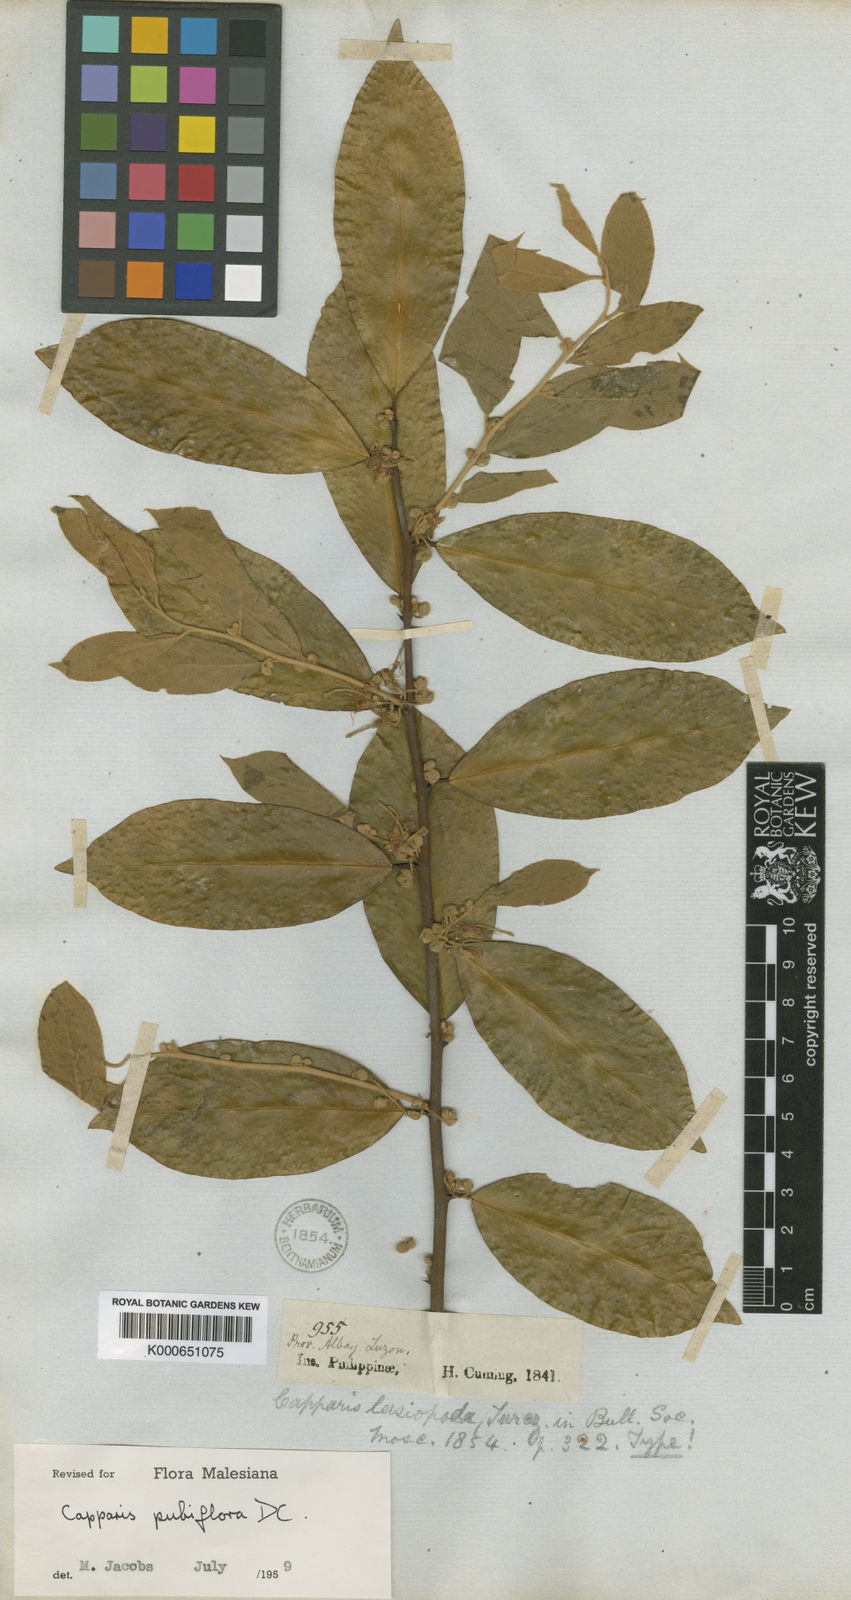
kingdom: Plantae
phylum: Tracheophyta
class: Magnoliopsida
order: Brassicales
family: Capparaceae
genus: Capparis
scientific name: Capparis pubiflora
